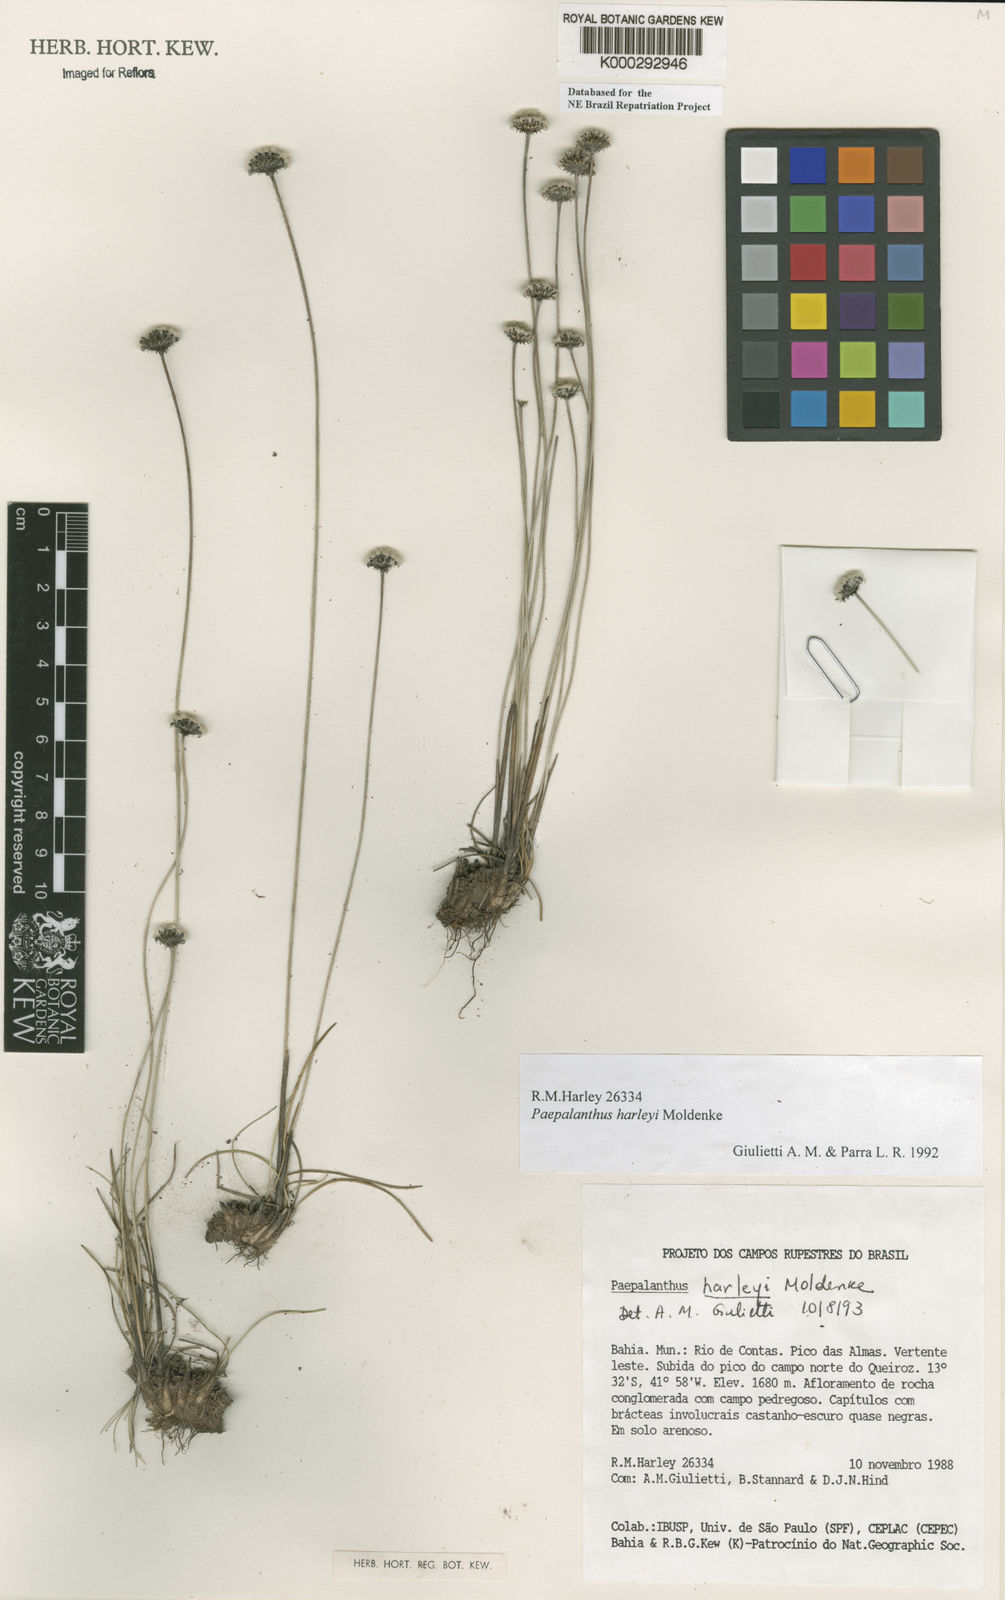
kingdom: Plantae
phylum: Tracheophyta
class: Liliopsida
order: Poales
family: Eriocaulaceae
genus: Paepalanthus
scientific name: Paepalanthus harleyi
